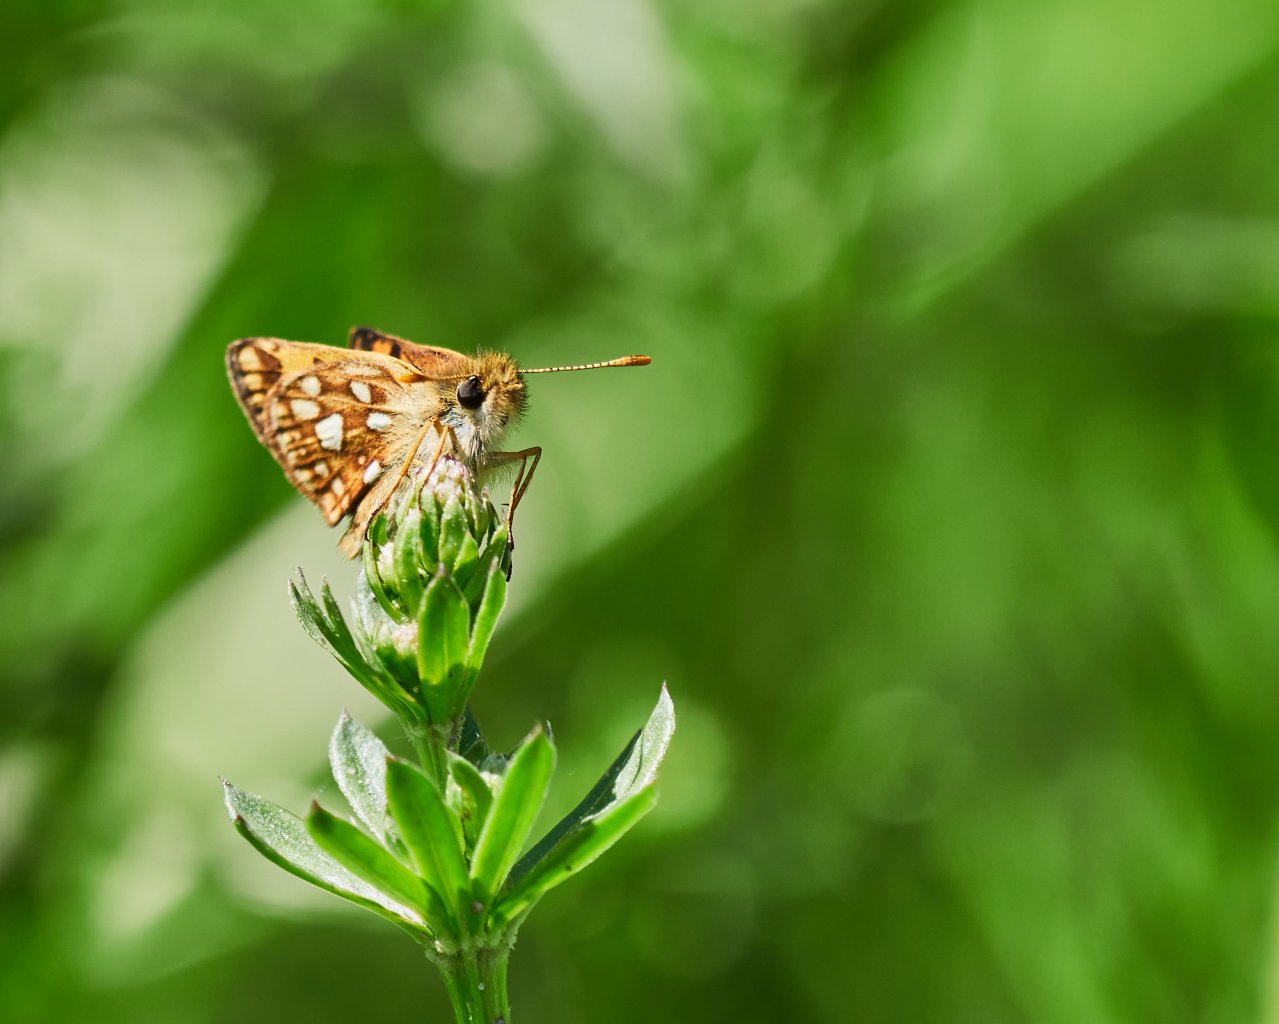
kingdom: Animalia
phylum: Arthropoda
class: Insecta
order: Lepidoptera
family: Hesperiidae
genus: Carterocephalus
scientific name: Carterocephalus palaemon
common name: Chequered Skipper
